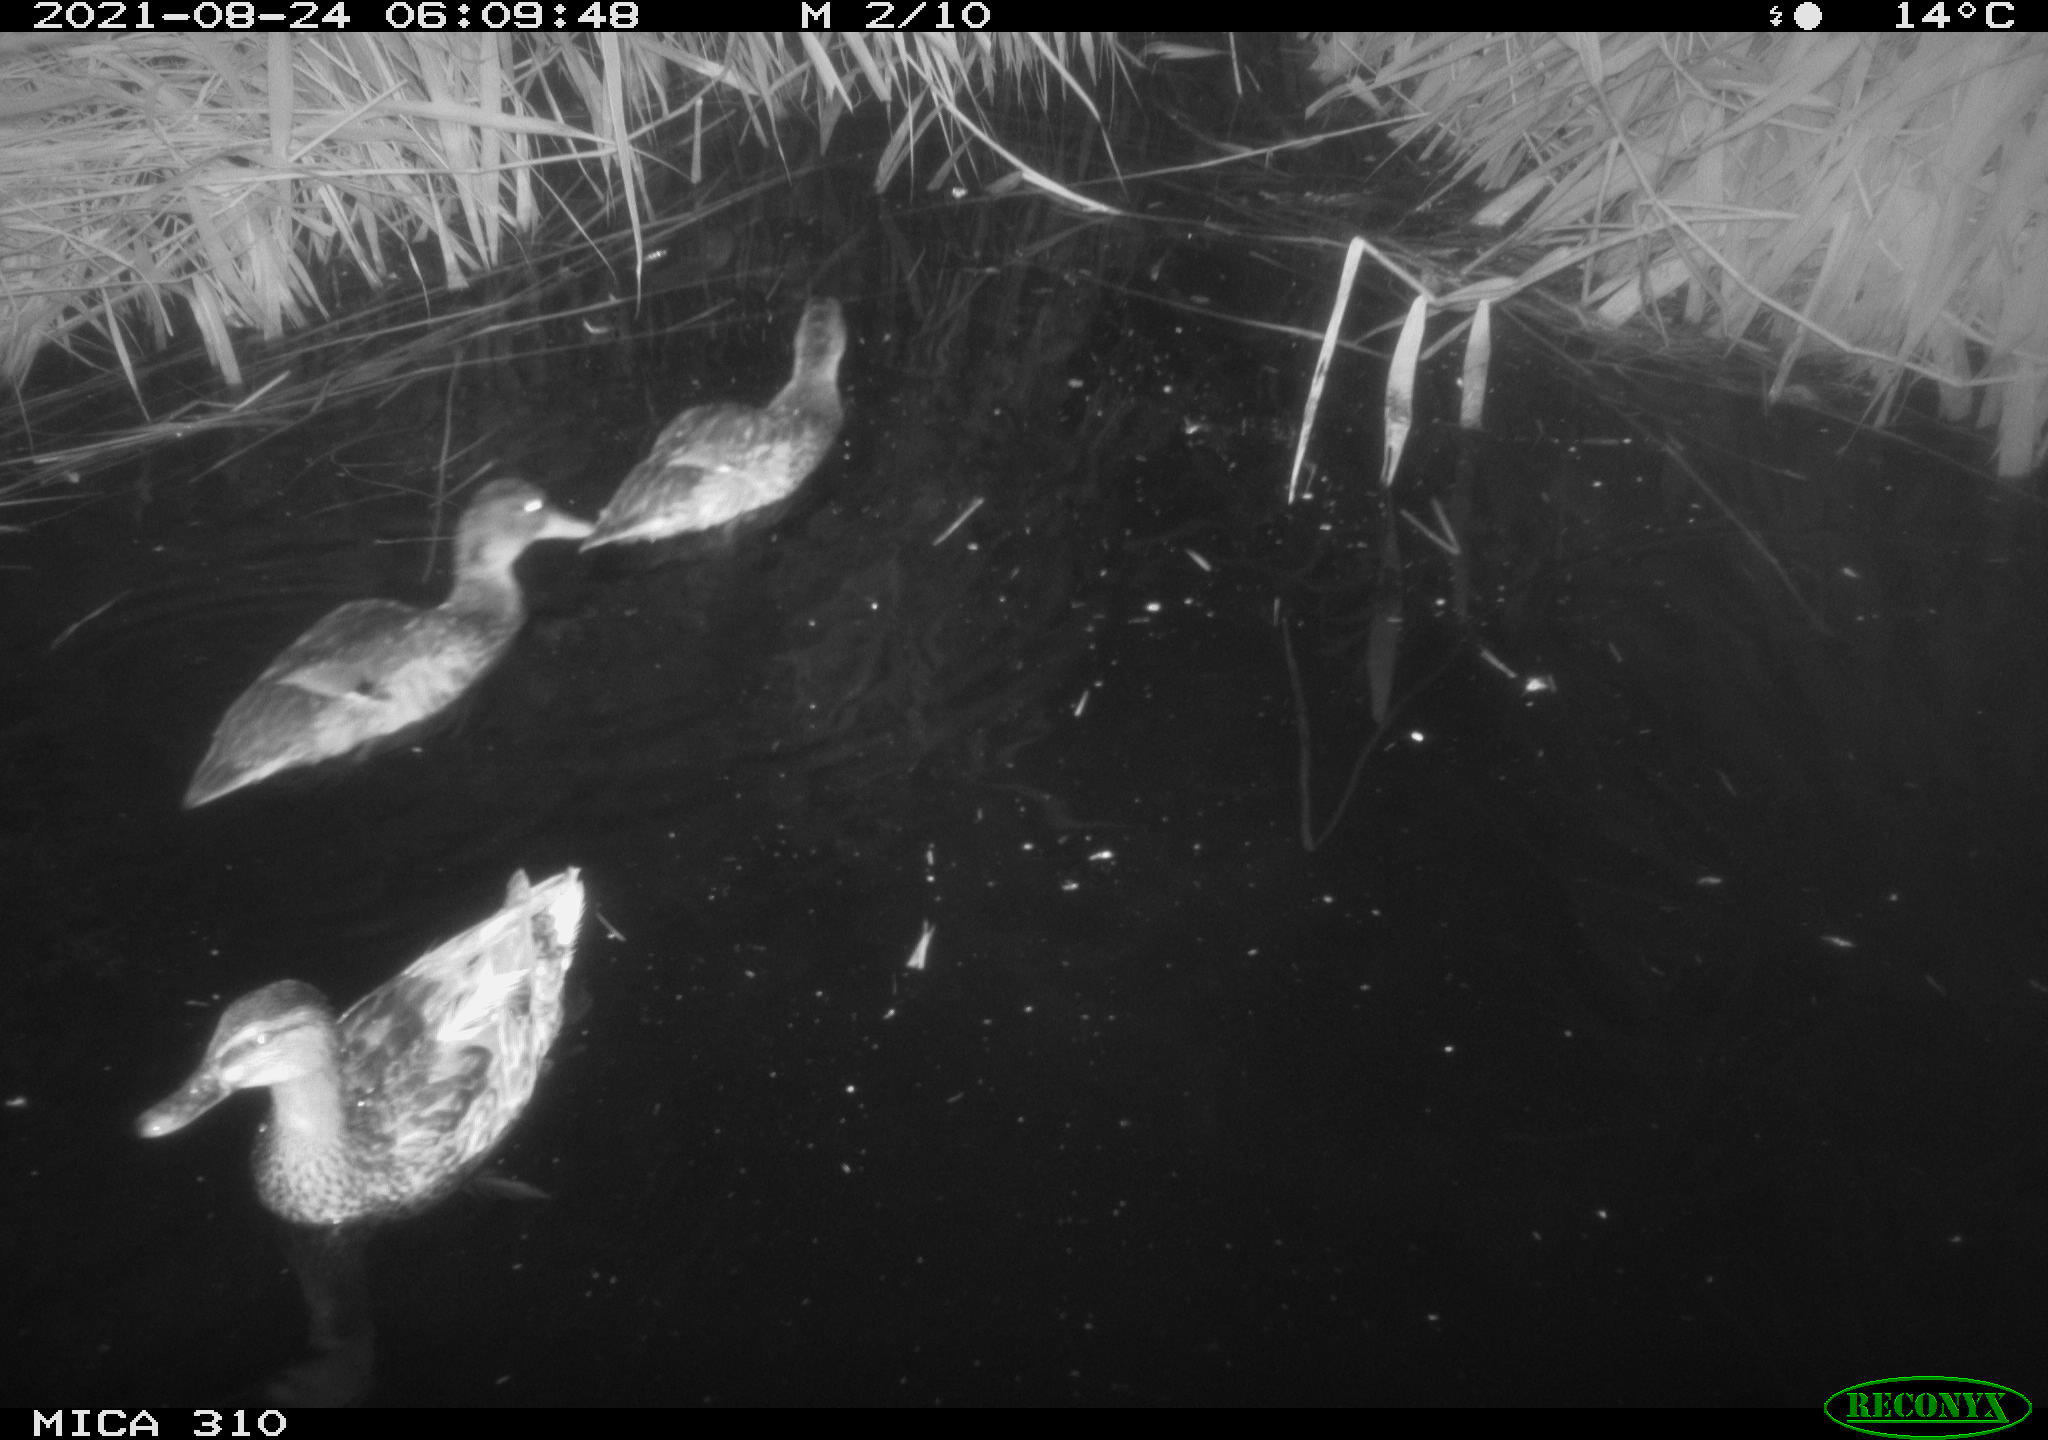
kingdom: Animalia
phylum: Chordata
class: Aves
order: Anseriformes
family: Anatidae
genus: Mareca
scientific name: Mareca strepera
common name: Gadwall
